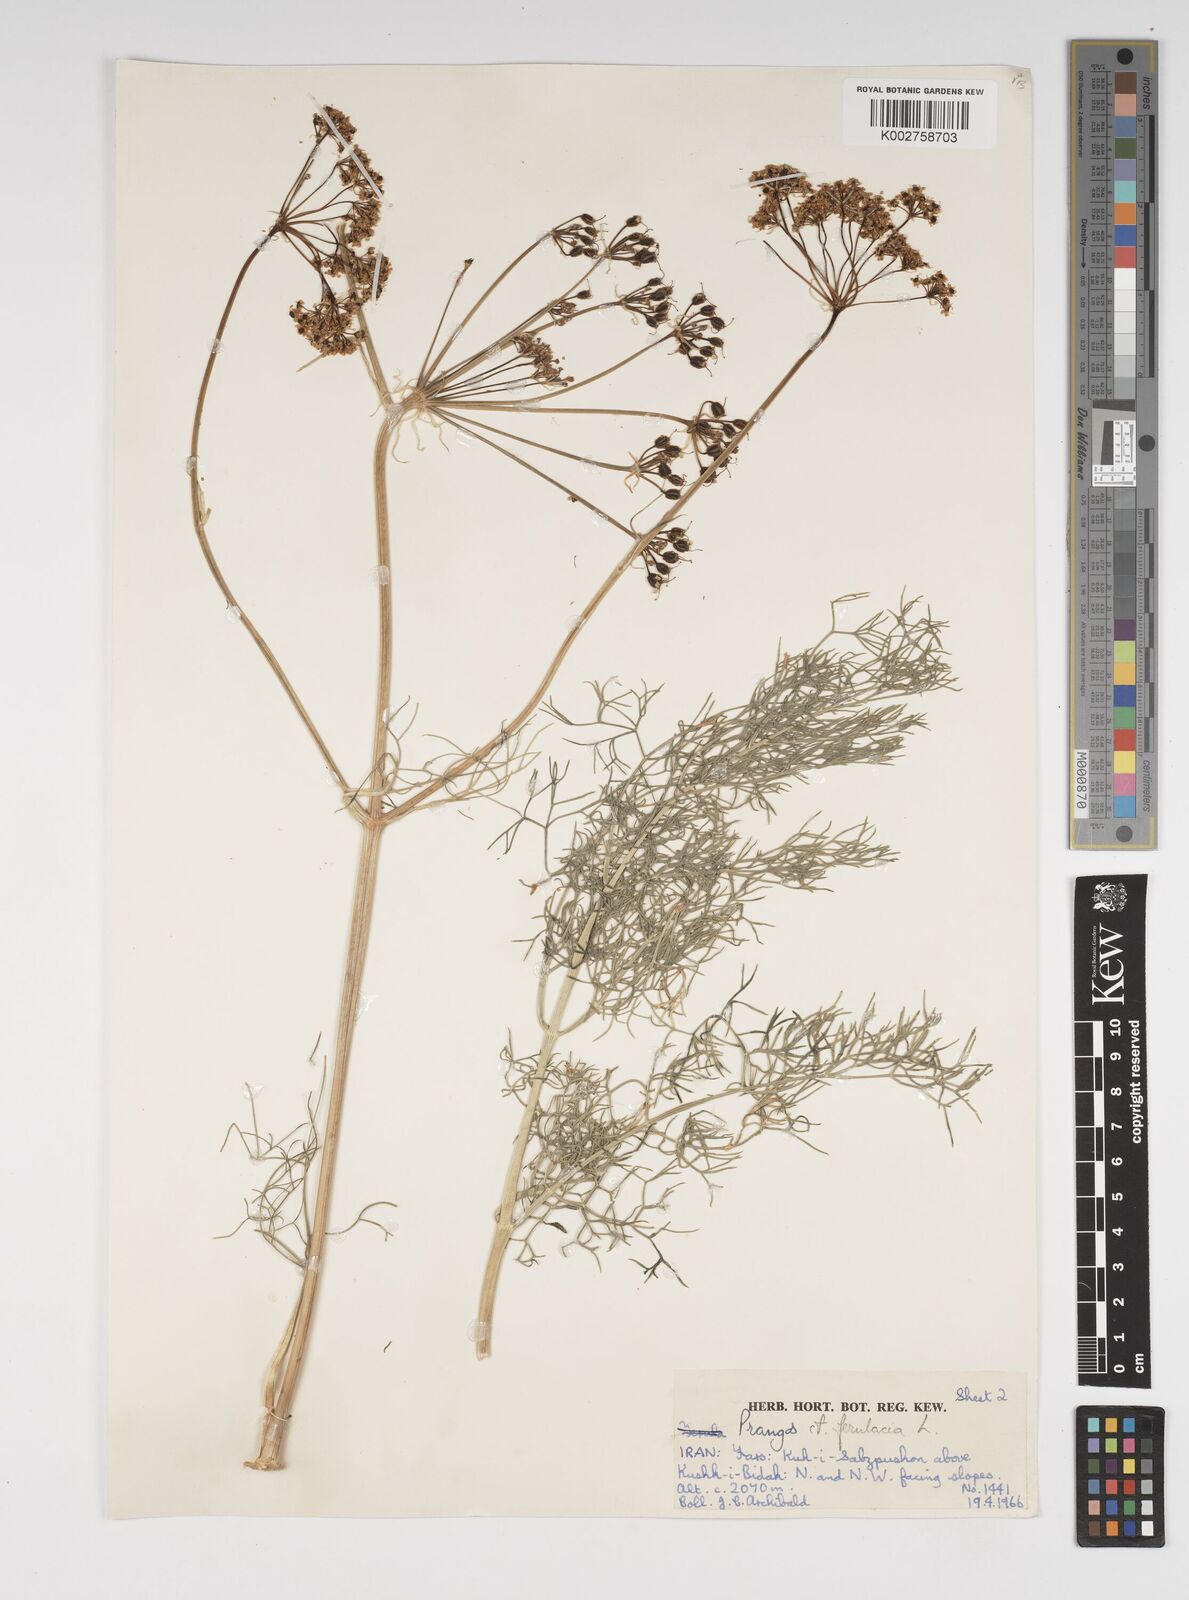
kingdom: Plantae
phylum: Tracheophyta
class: Magnoliopsida
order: Apiales
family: Apiaceae
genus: Prangos
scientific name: Prangos ferulacea
